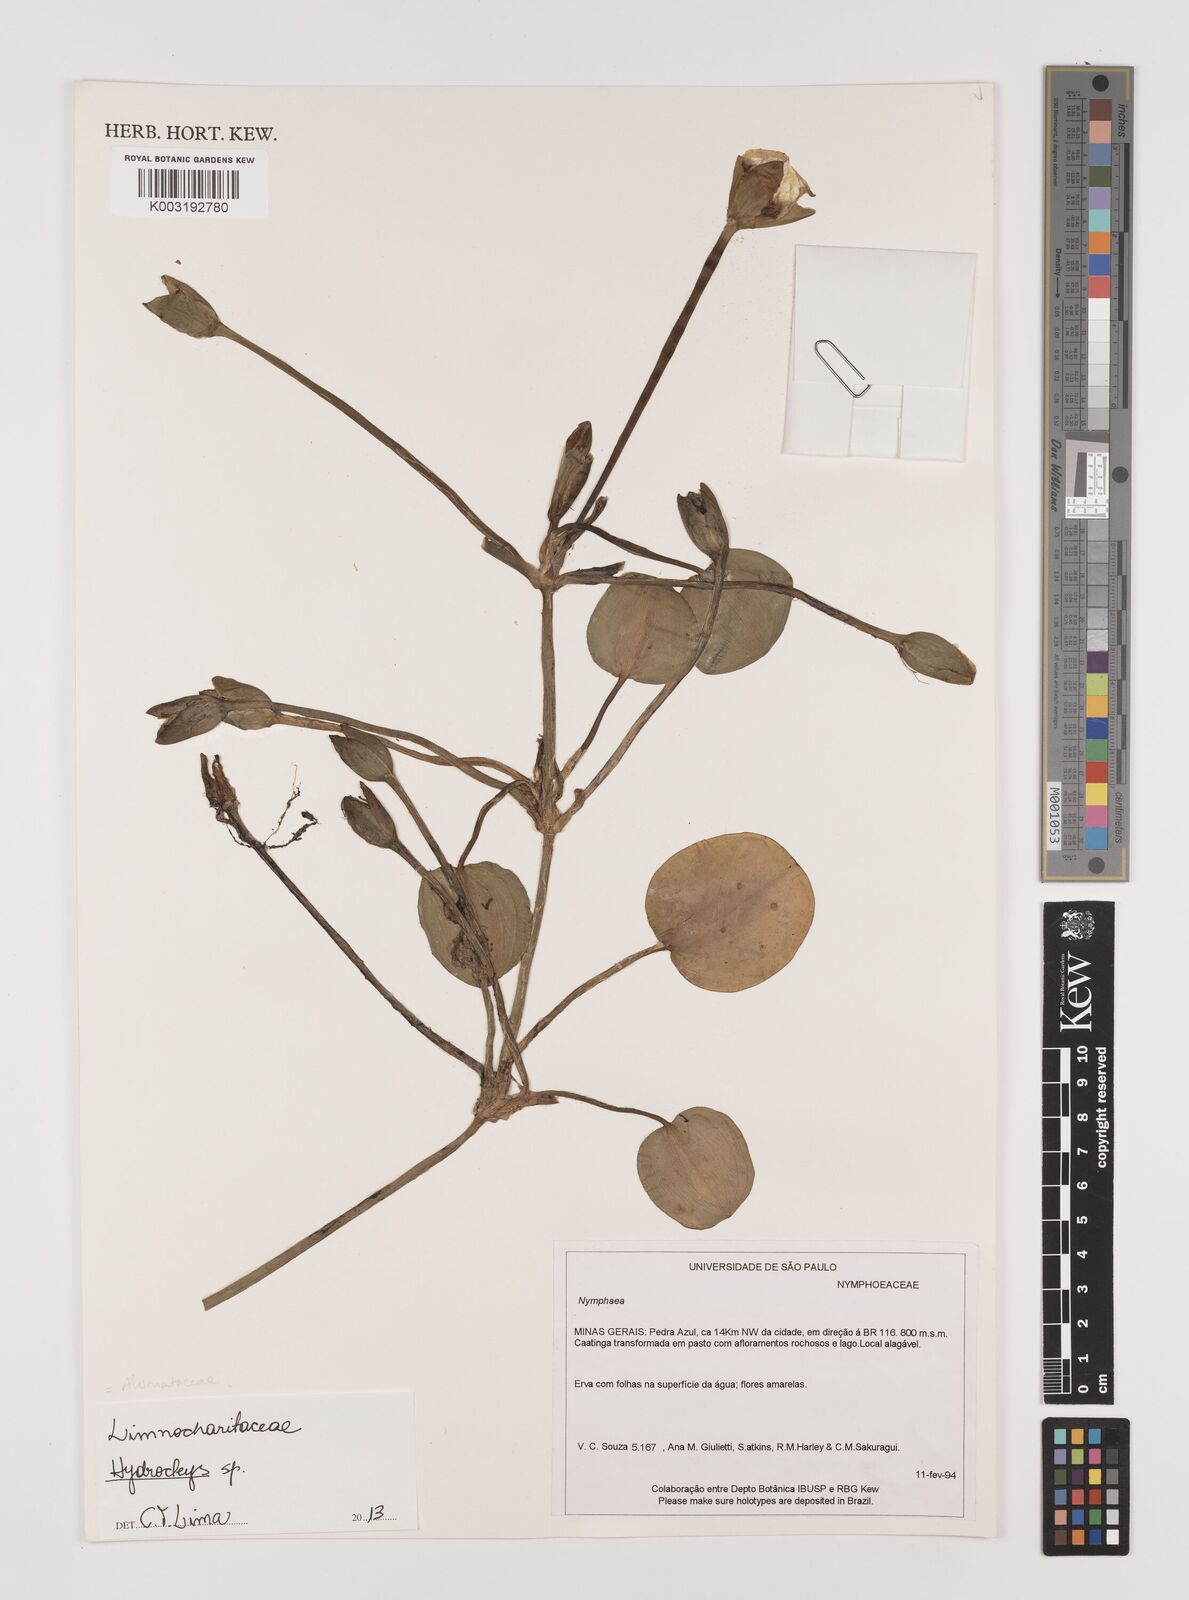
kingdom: Plantae
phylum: Tracheophyta
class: Liliopsida
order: Alismatales
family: Alismataceae
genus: Hydrocleys
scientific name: Hydrocleys
